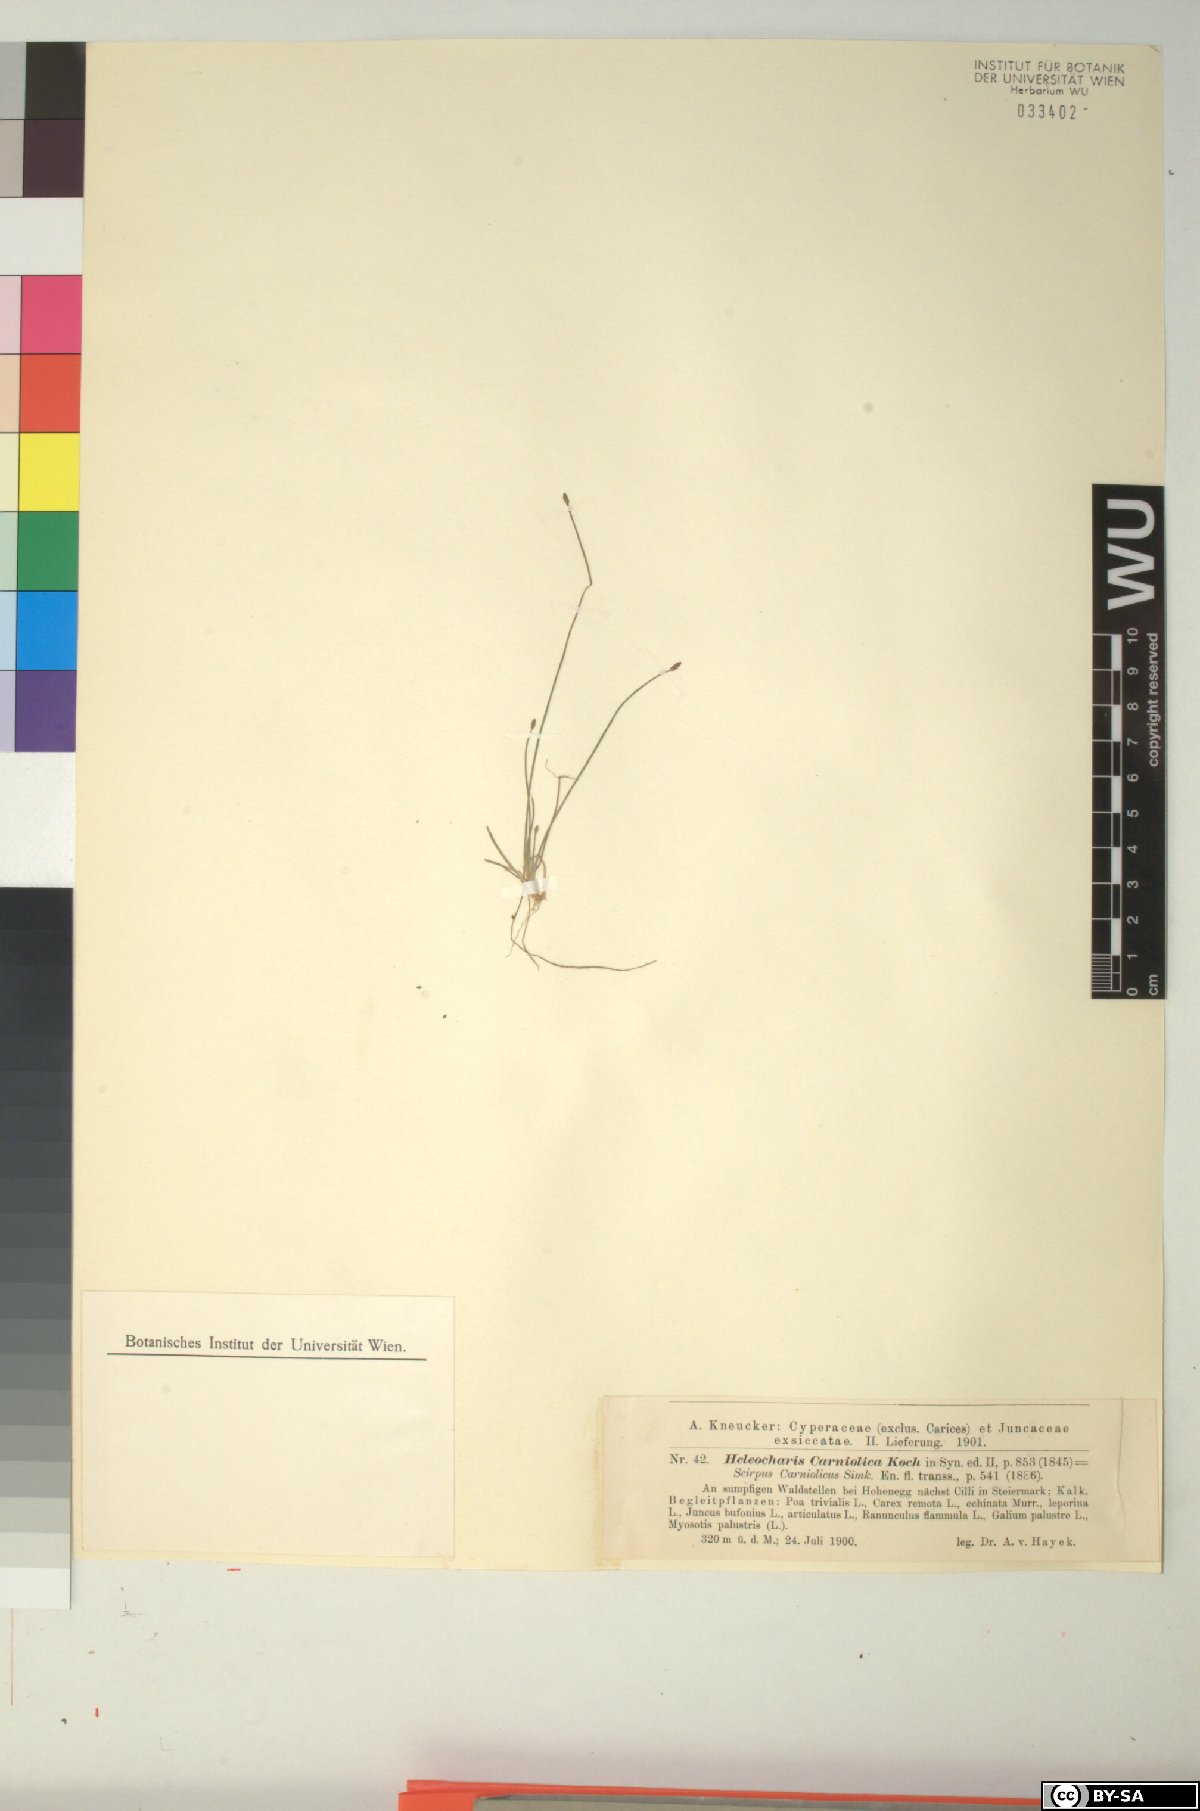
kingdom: Plantae
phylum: Tracheophyta
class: Liliopsida
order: Poales
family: Cyperaceae
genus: Eleocharis
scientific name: Eleocharis carniolica
